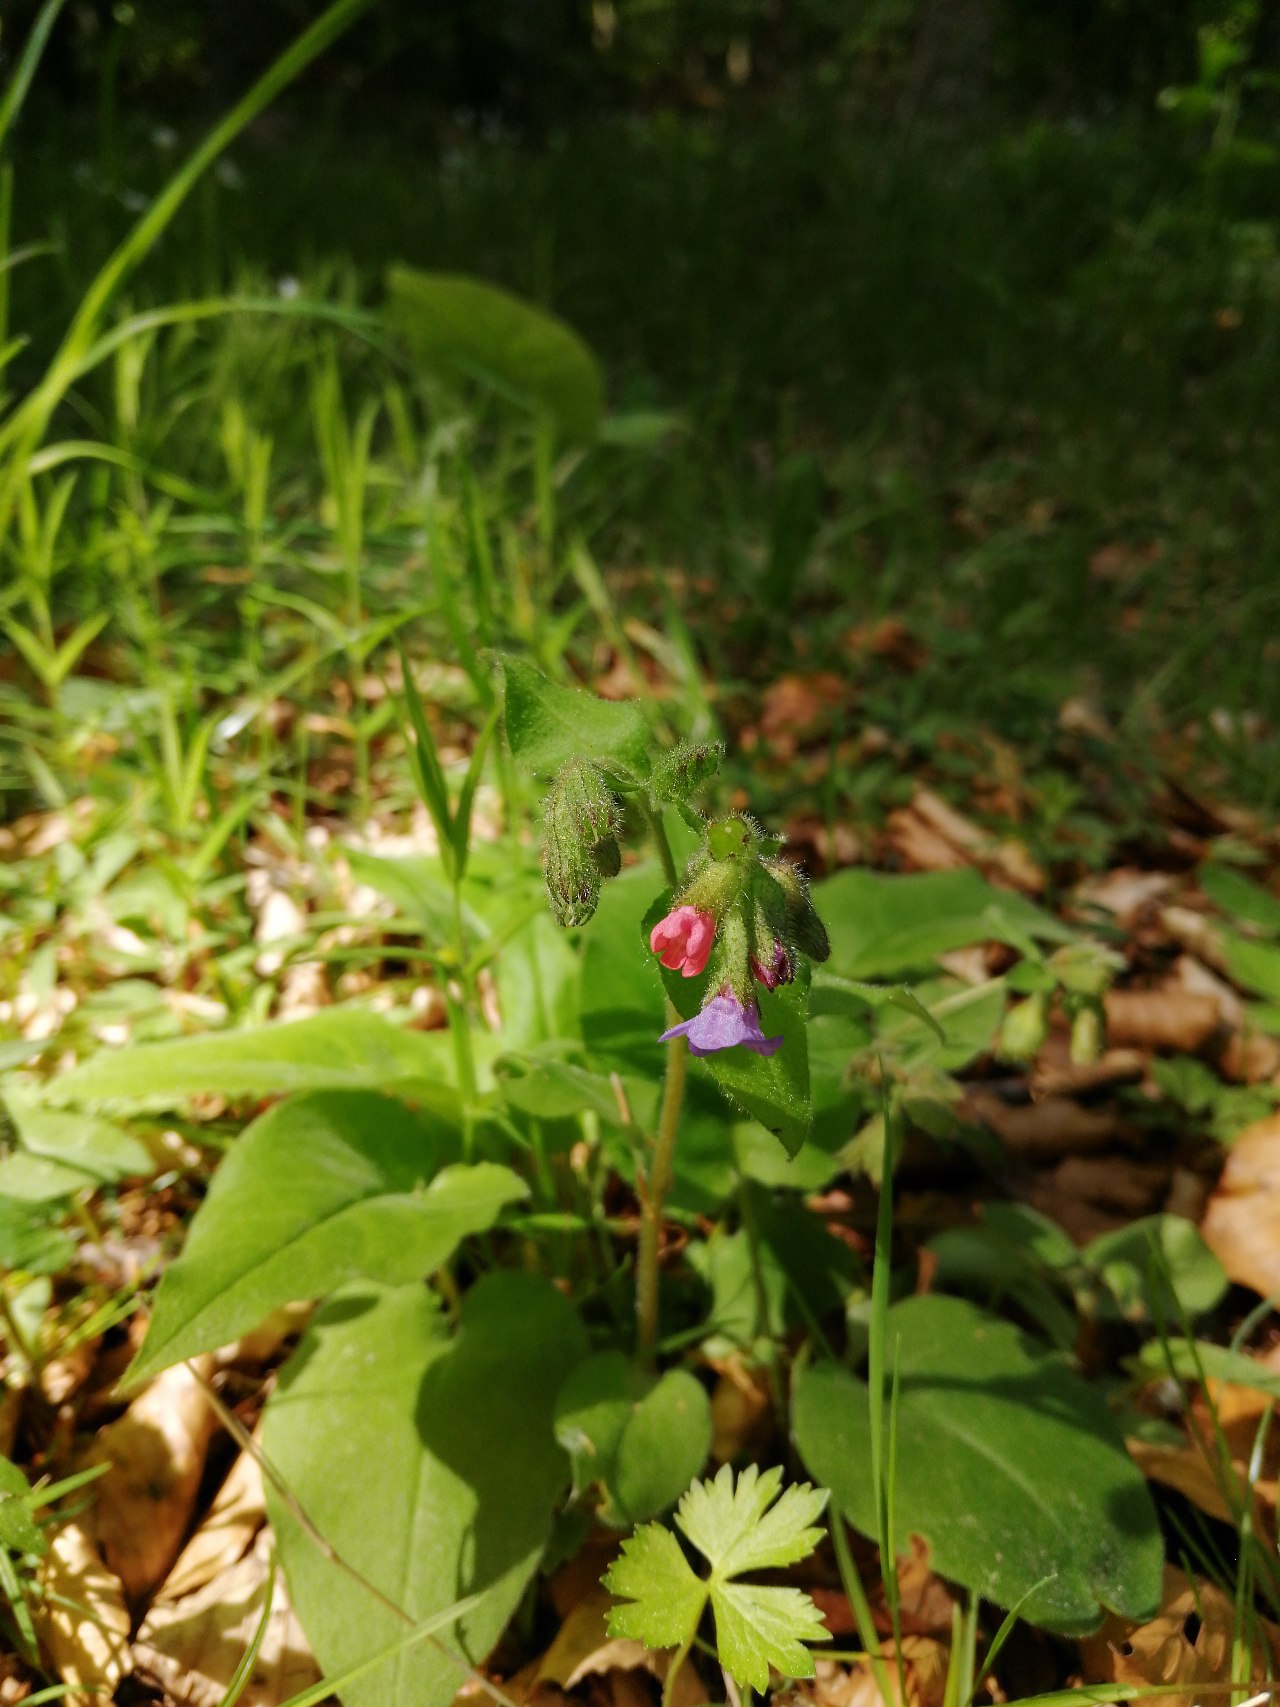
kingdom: Plantae
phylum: Tracheophyta
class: Magnoliopsida
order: Boraginales
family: Boraginaceae
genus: Pulmonaria
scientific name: Pulmonaria obscura
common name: Almindelig lungeurt
